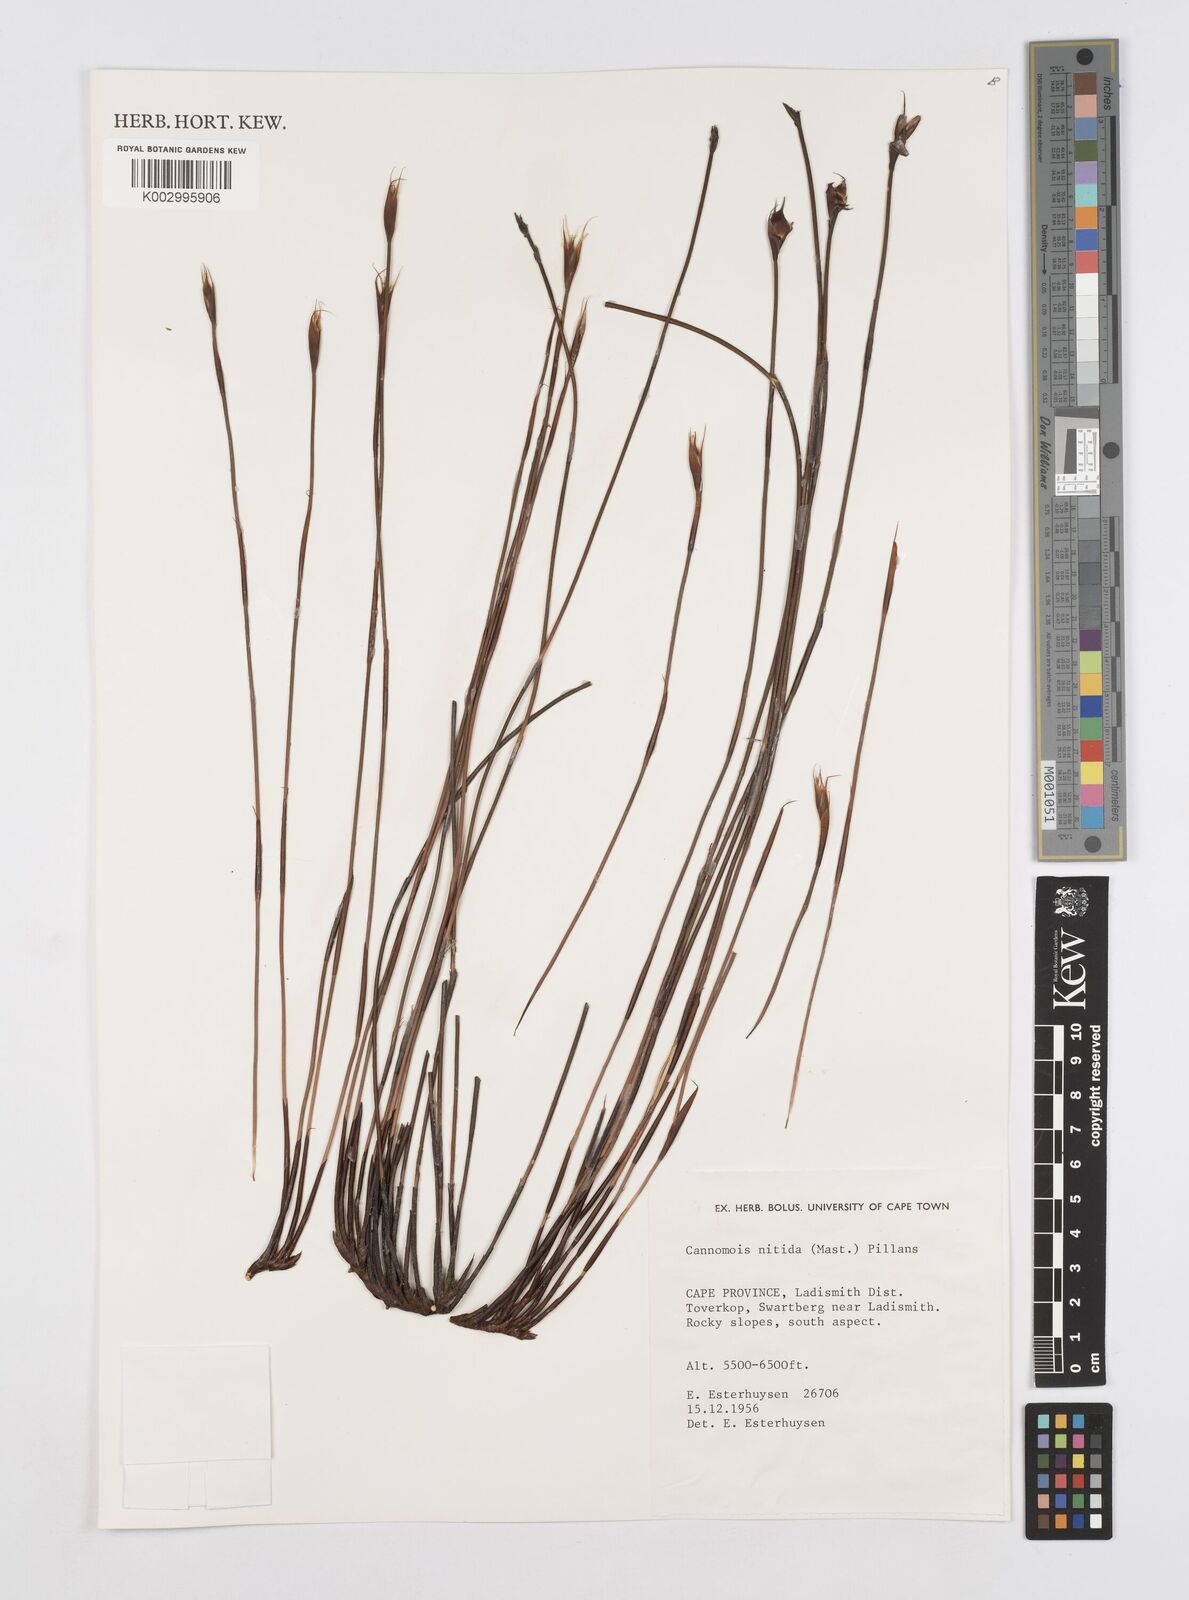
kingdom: Plantae
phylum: Tracheophyta
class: Liliopsida
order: Poales
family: Restionaceae
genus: Cannomois
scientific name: Cannomois nitida
